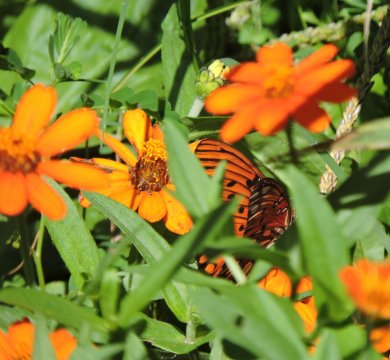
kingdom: Animalia
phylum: Arthropoda
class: Insecta
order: Lepidoptera
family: Nymphalidae
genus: Dione
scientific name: Dione vanillae
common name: Gulf Fritillary
